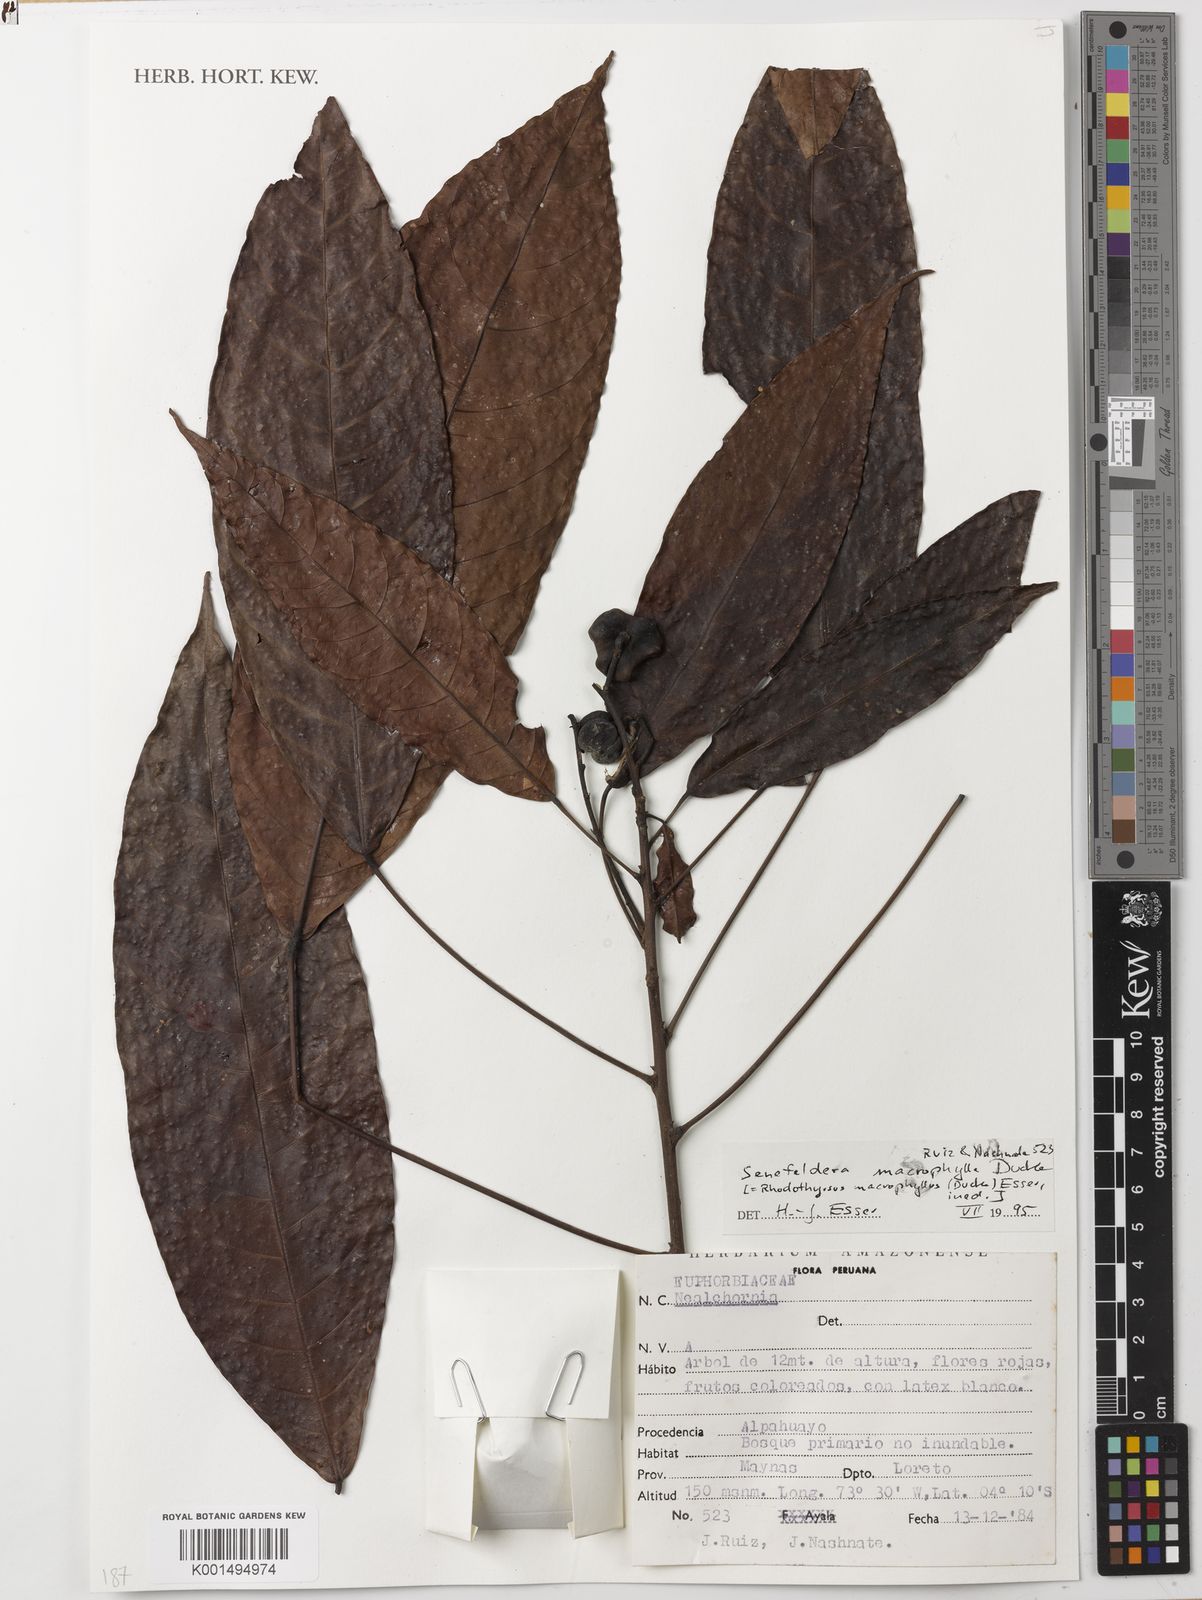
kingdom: Plantae
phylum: Tracheophyta
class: Magnoliopsida
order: Malpighiales
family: Euphorbiaceae
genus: Rhodothyrsus
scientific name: Rhodothyrsus macrophyllus
